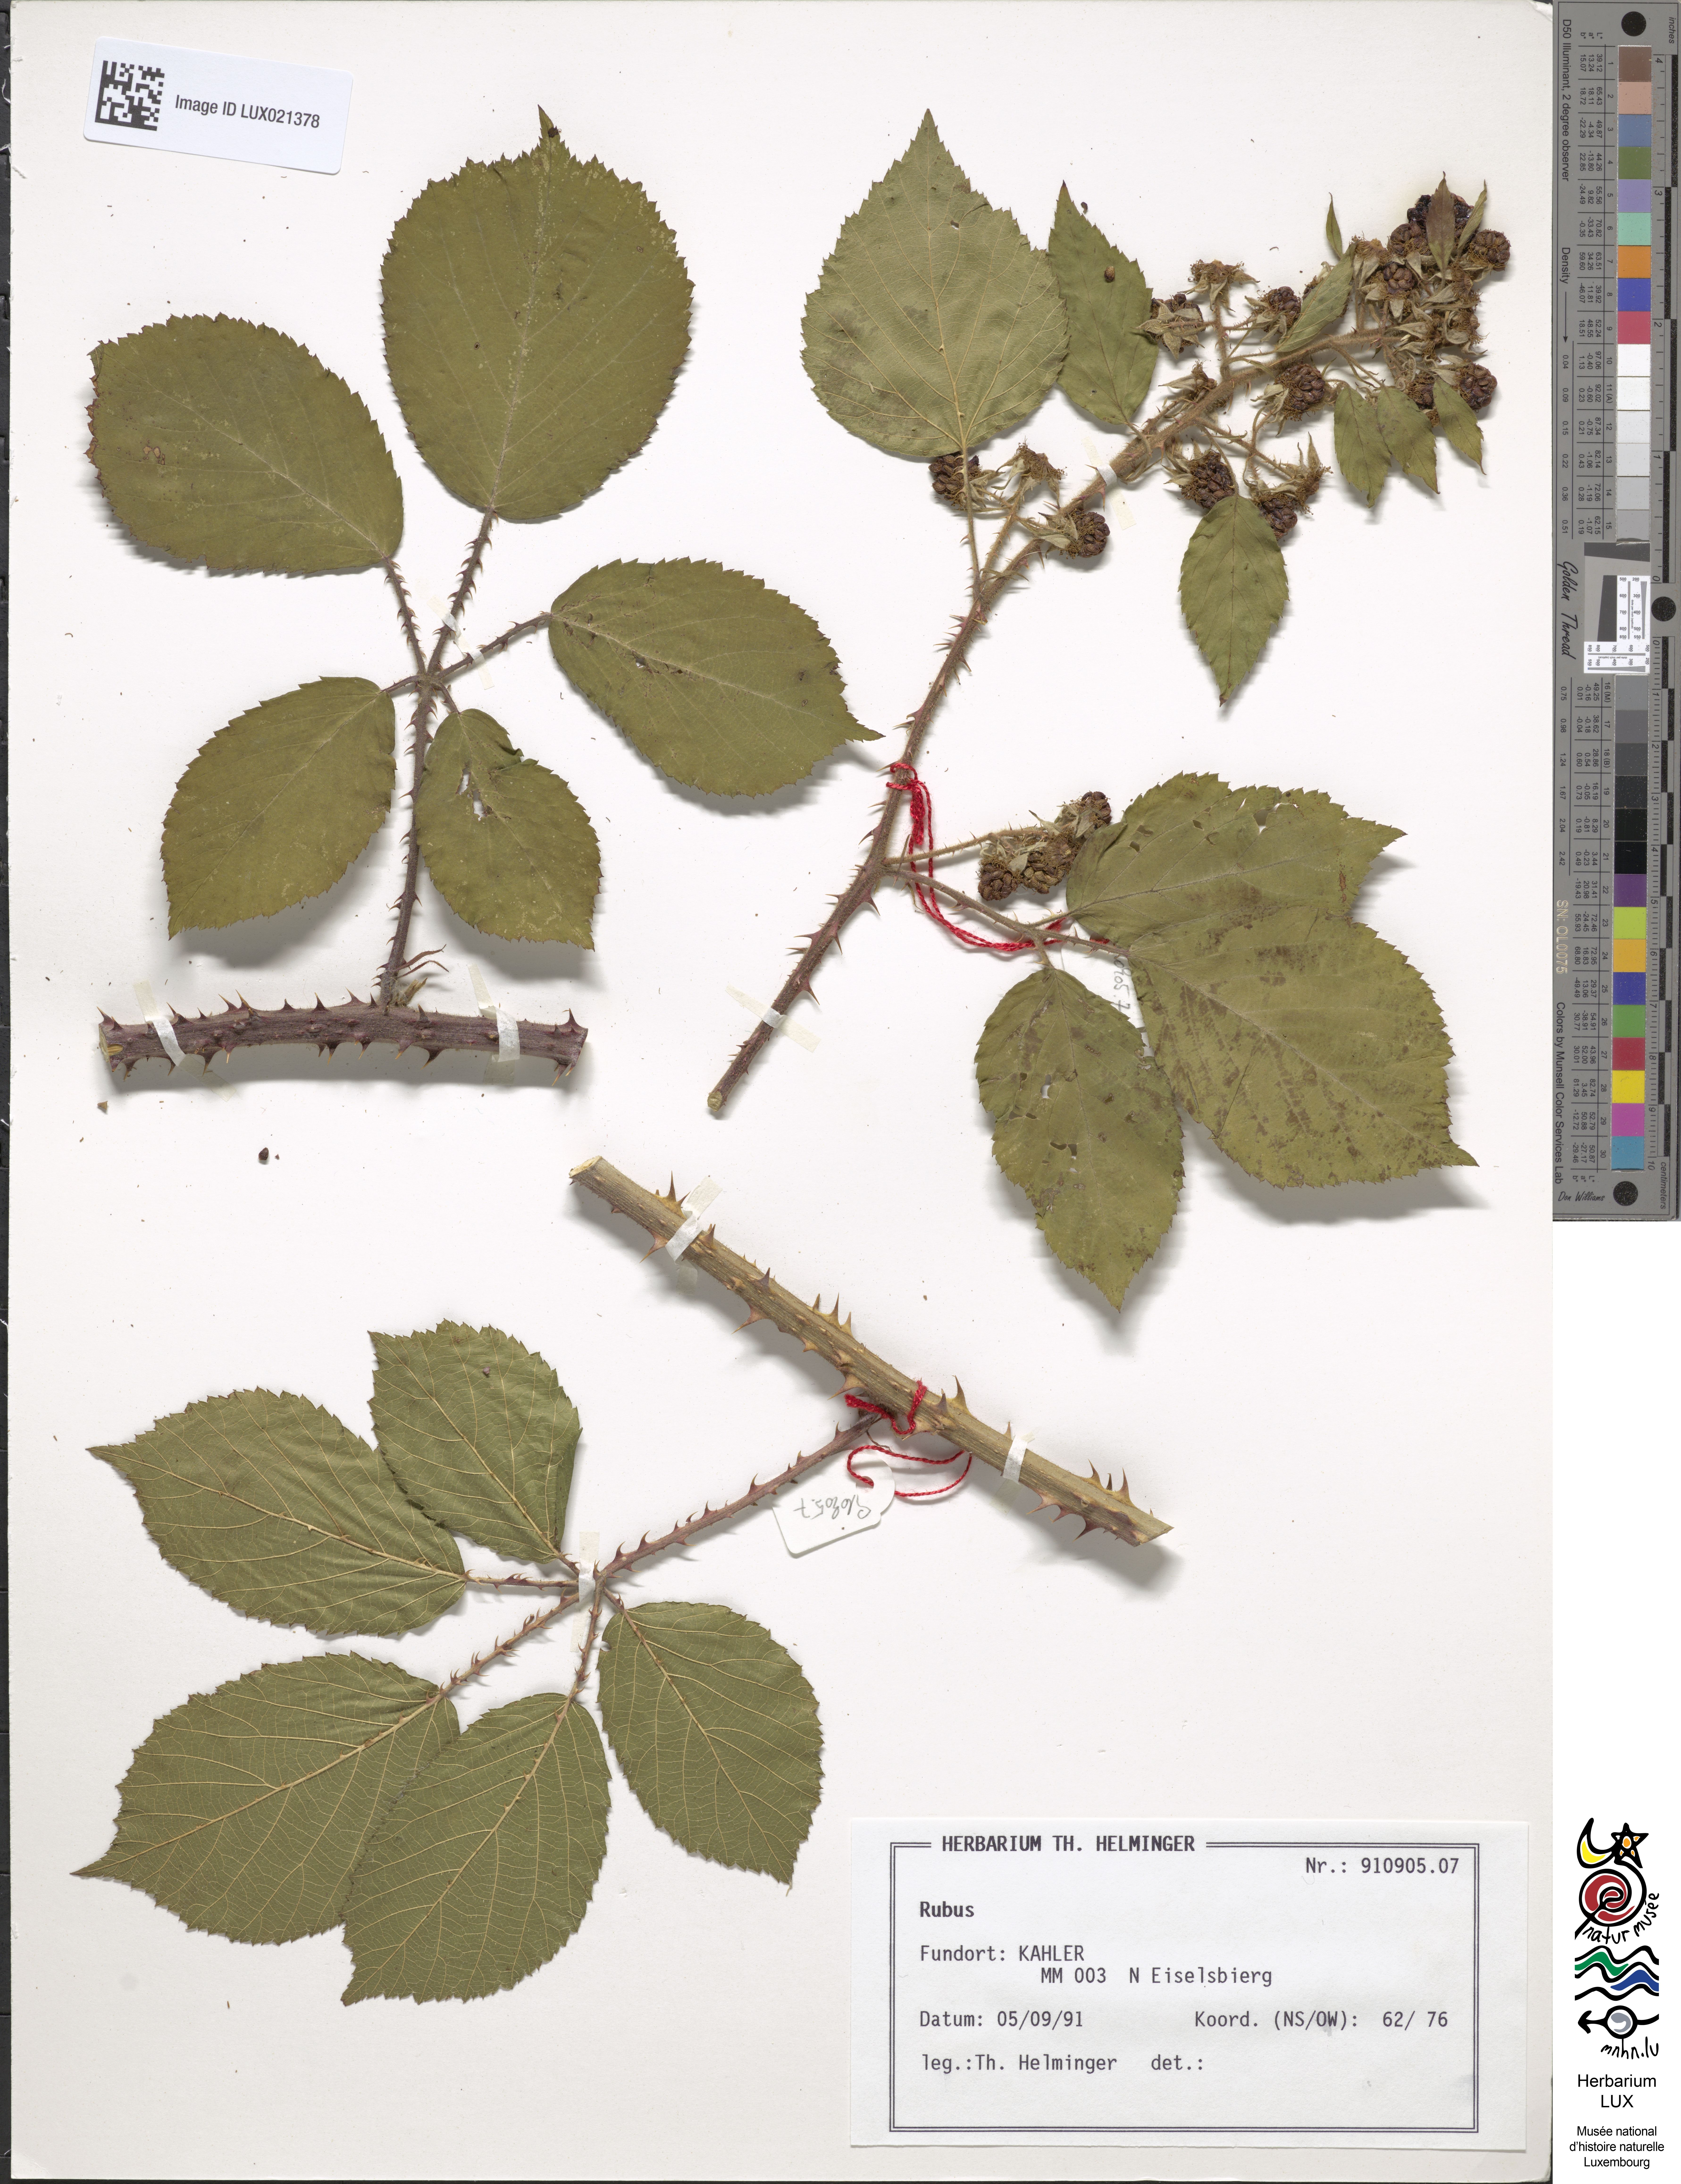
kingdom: Plantae
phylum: Tracheophyta
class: Magnoliopsida
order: Rosales
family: Rosaceae
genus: Rubus
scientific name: Rubus
